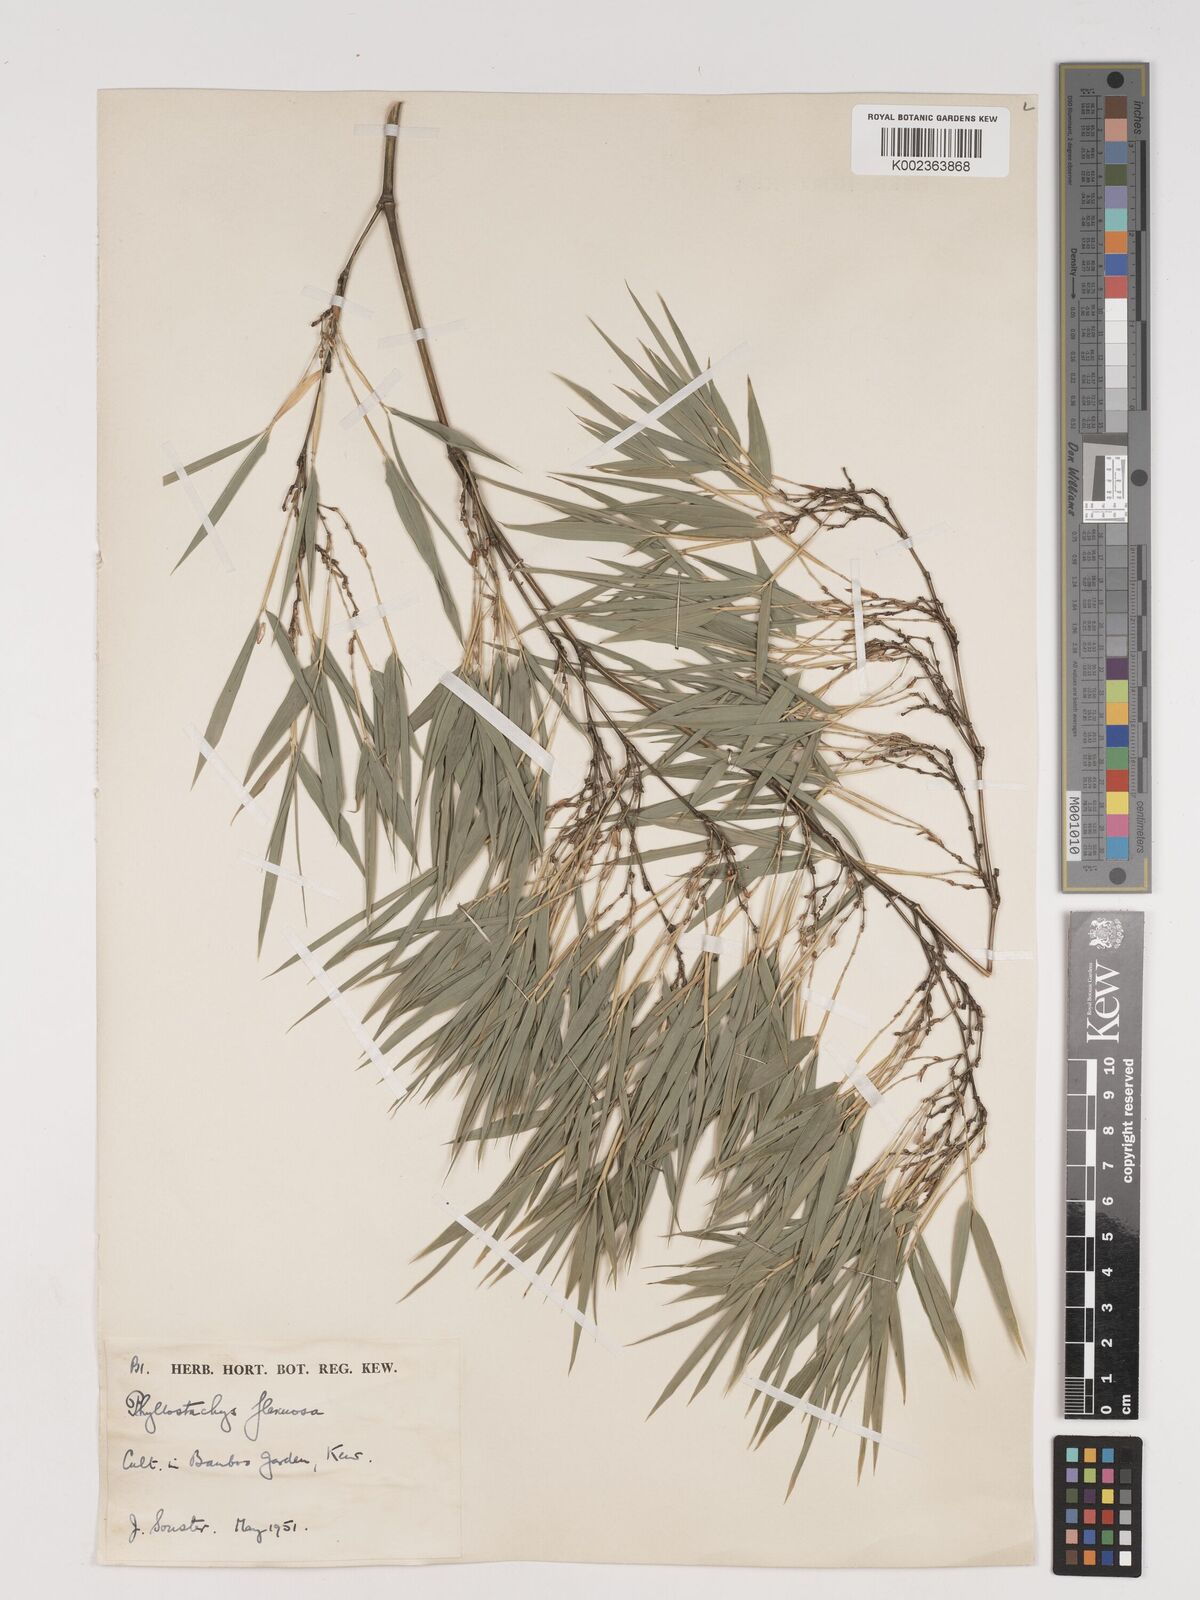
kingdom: Plantae
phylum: Tracheophyta
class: Liliopsida
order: Poales
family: Poaceae
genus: Phyllostachys
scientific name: Phyllostachys flexuosa
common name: Drooping timber bamboo
